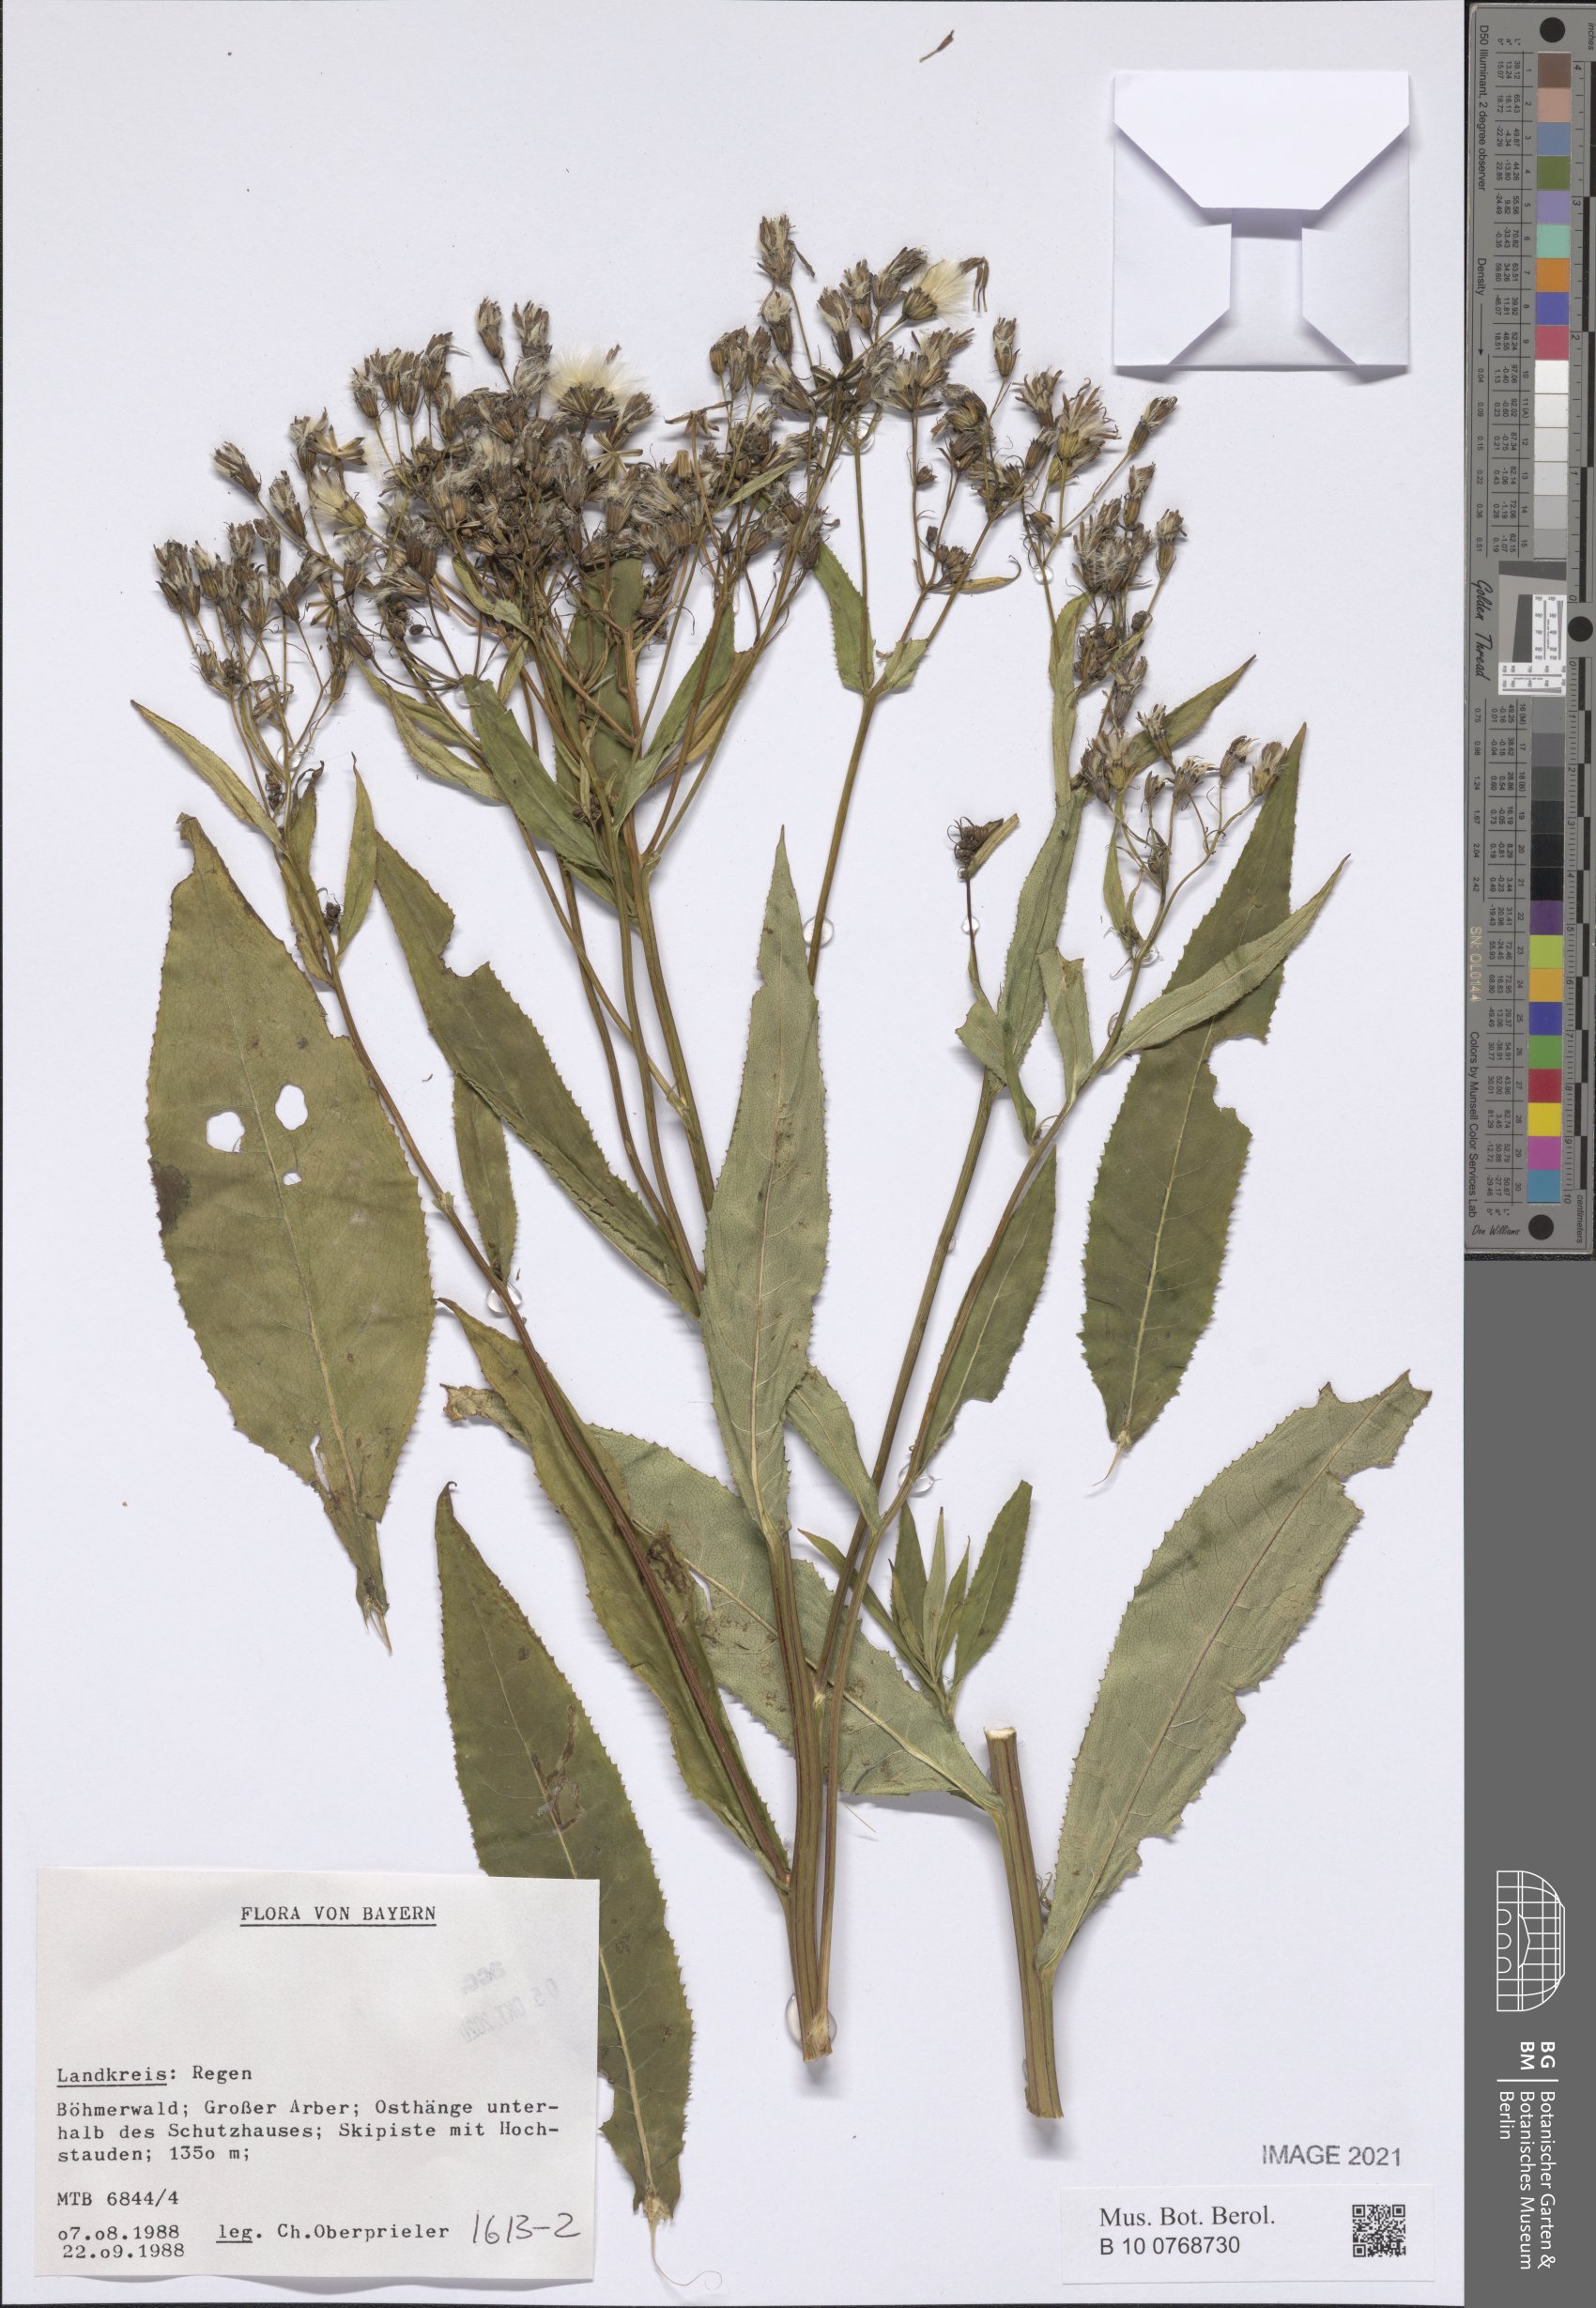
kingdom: Plantae
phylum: Tracheophyta
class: Magnoliopsida
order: Asterales
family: Asteraceae
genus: Senecio
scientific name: Senecio
